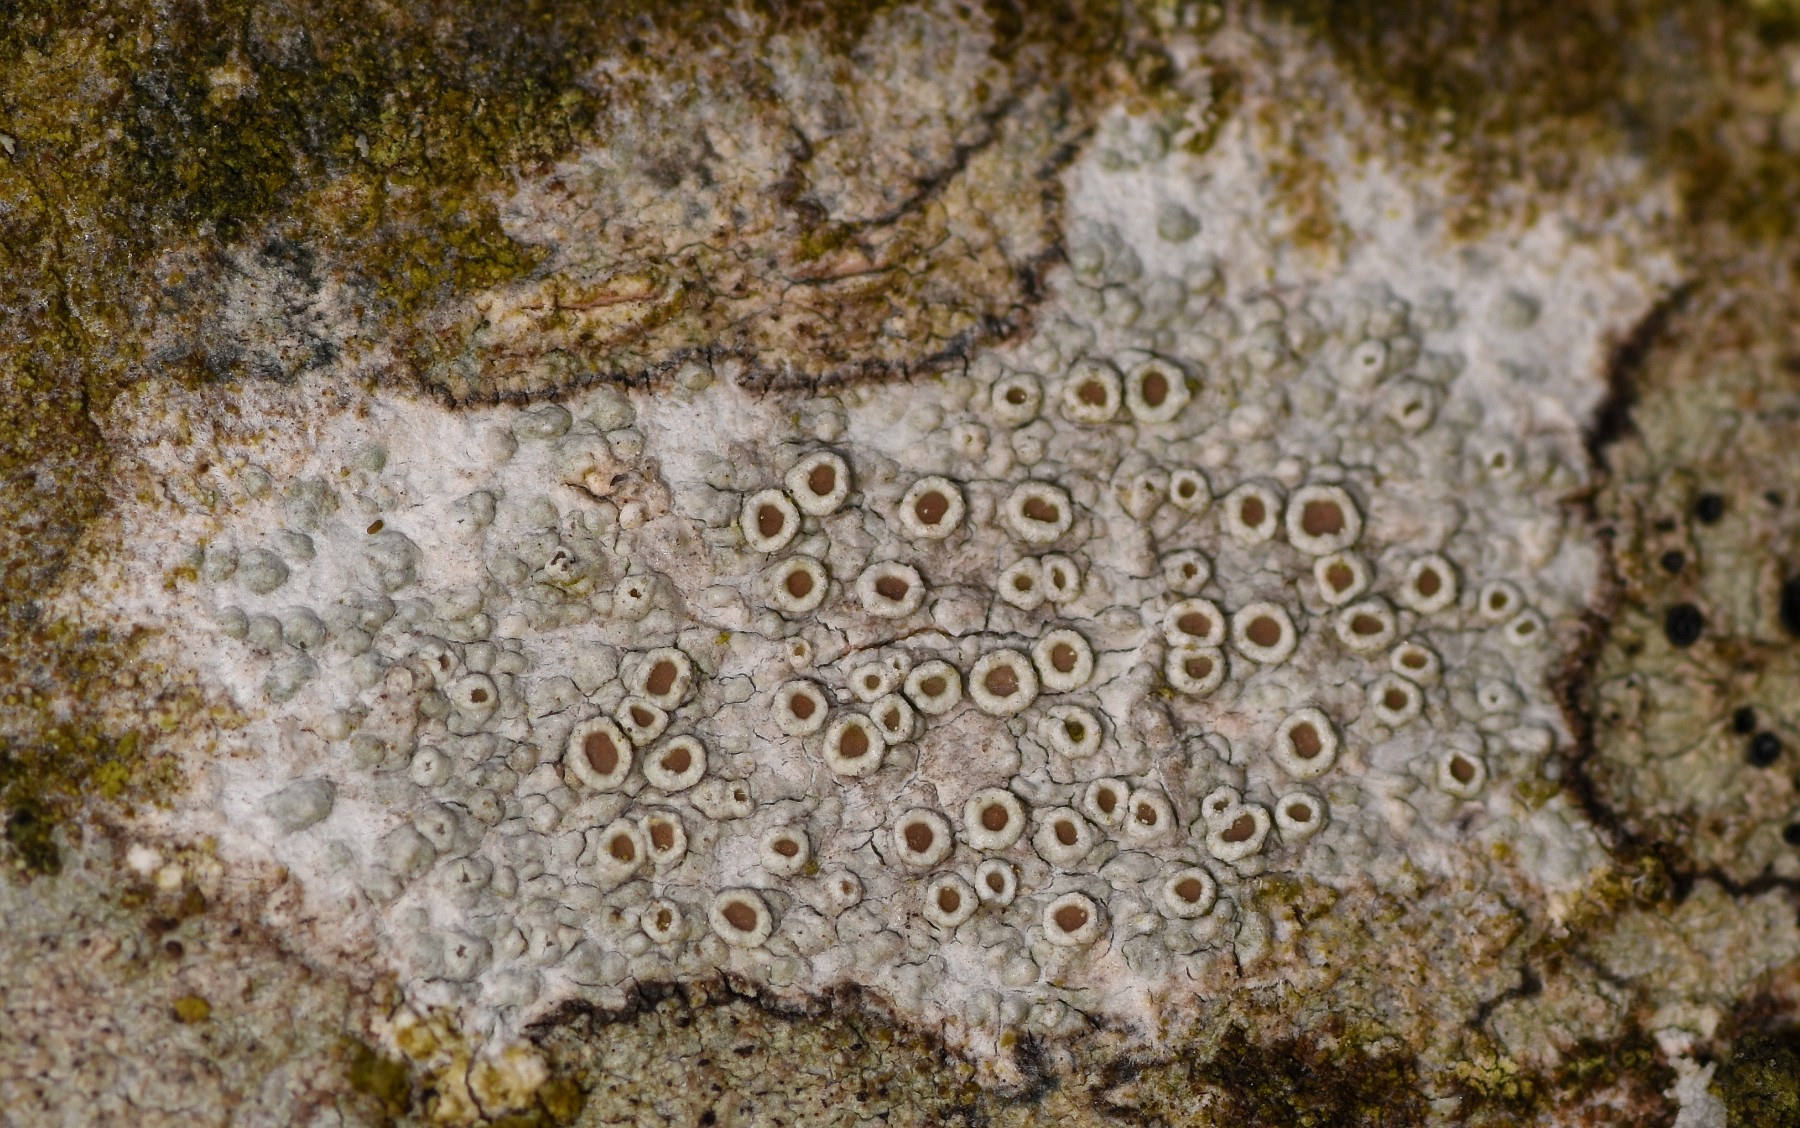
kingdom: Fungi
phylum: Ascomycota
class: Lecanoromycetes
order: Lecanorales
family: Lecanoraceae
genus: Lecanora
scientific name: Lecanora chlarotera
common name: brun kantskivelav
